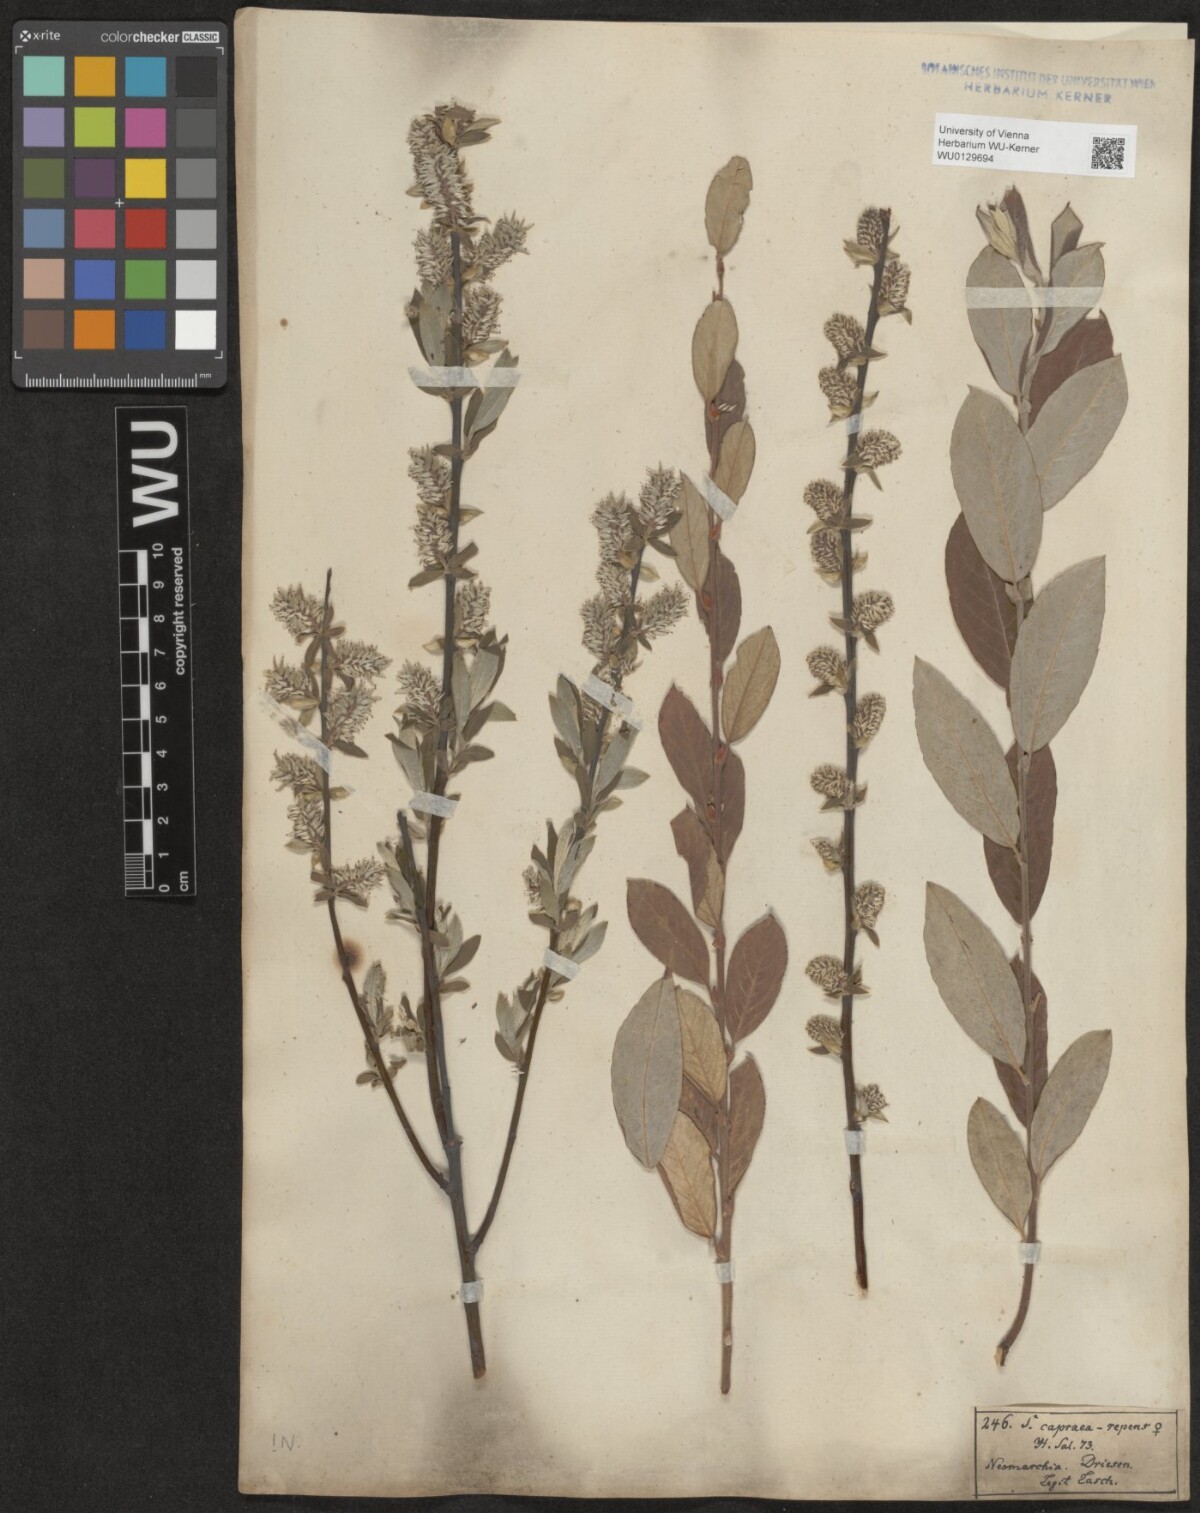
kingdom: Plantae
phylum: Tracheophyta
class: Magnoliopsida
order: Malpighiales
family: Salicaceae
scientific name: Salicaceae
